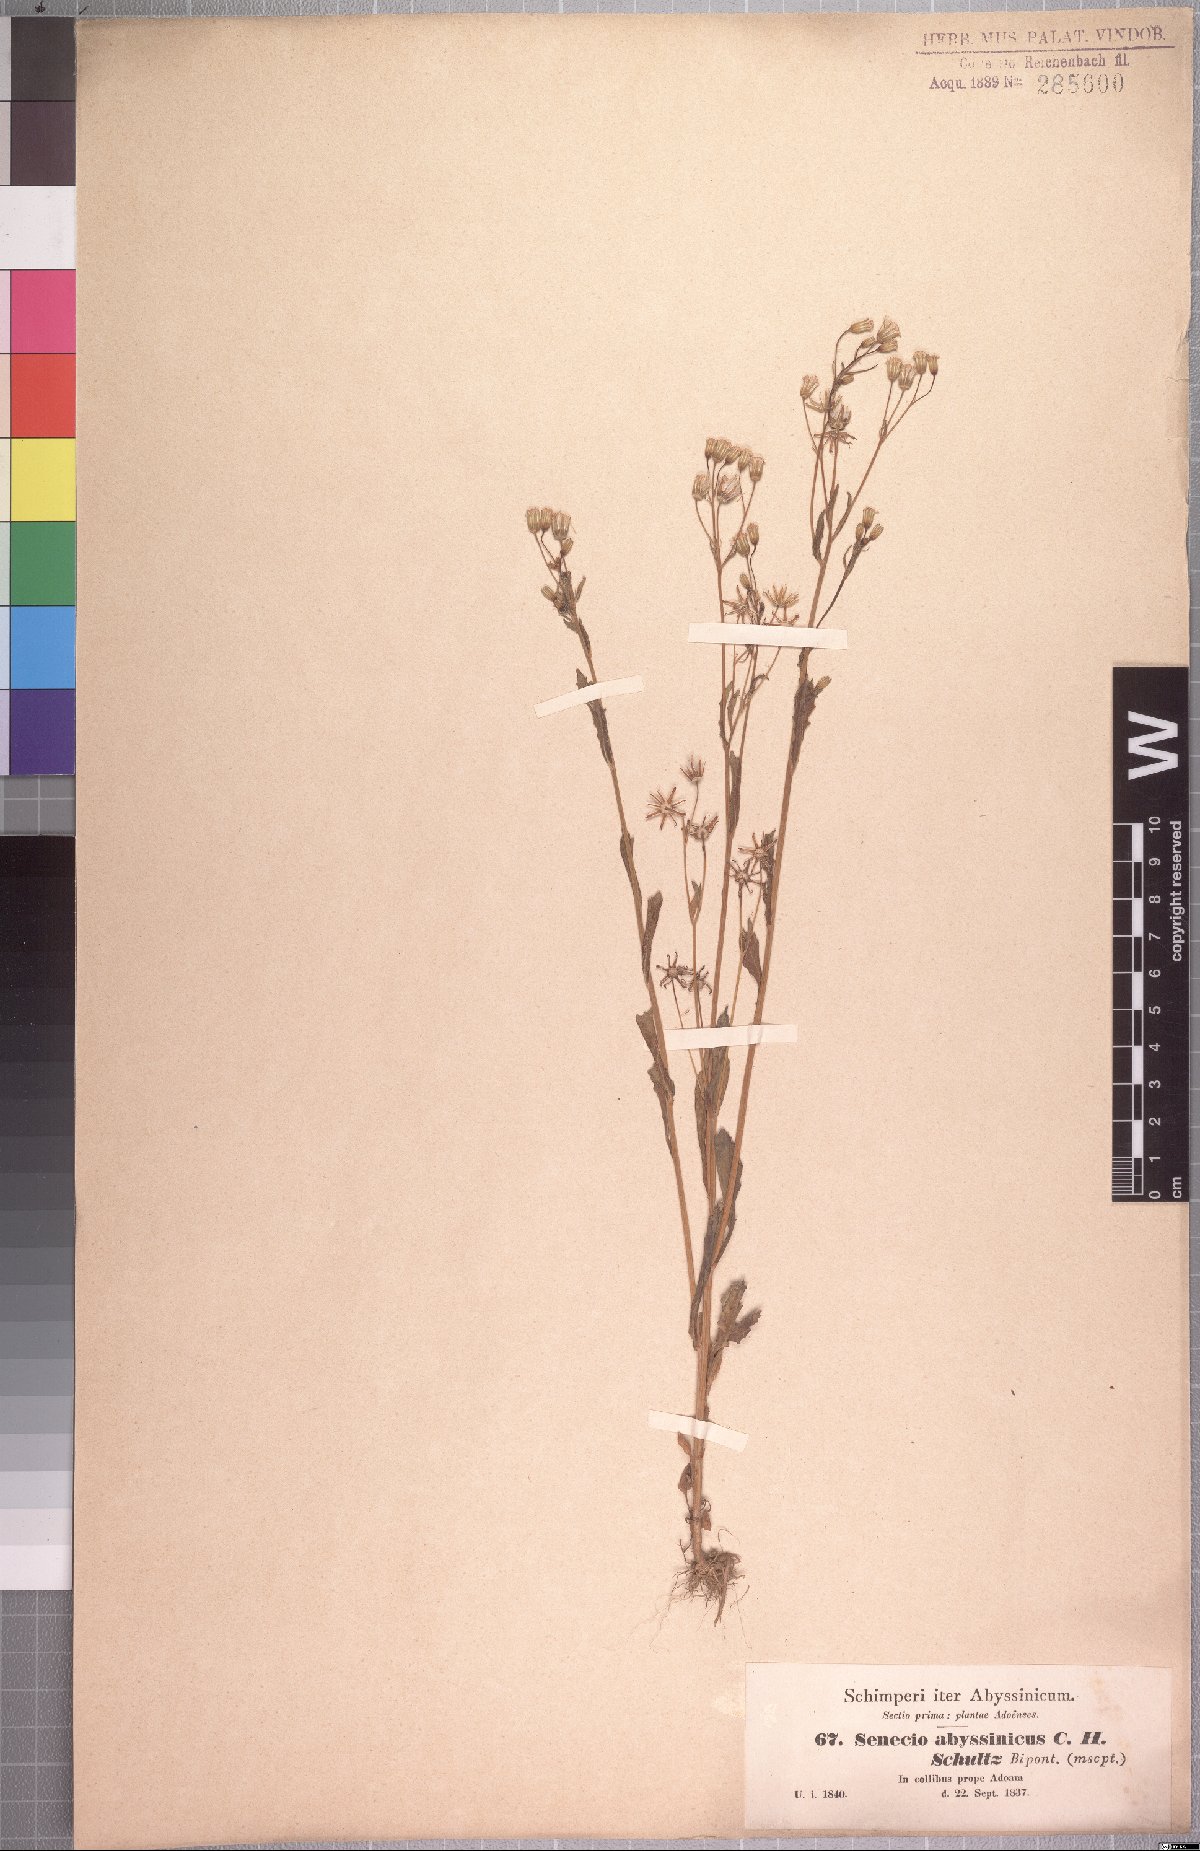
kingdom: Plantae
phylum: Tracheophyta
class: Magnoliopsida
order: Asterales
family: Asteraceae
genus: Emilia
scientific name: Emilia abyssinica
